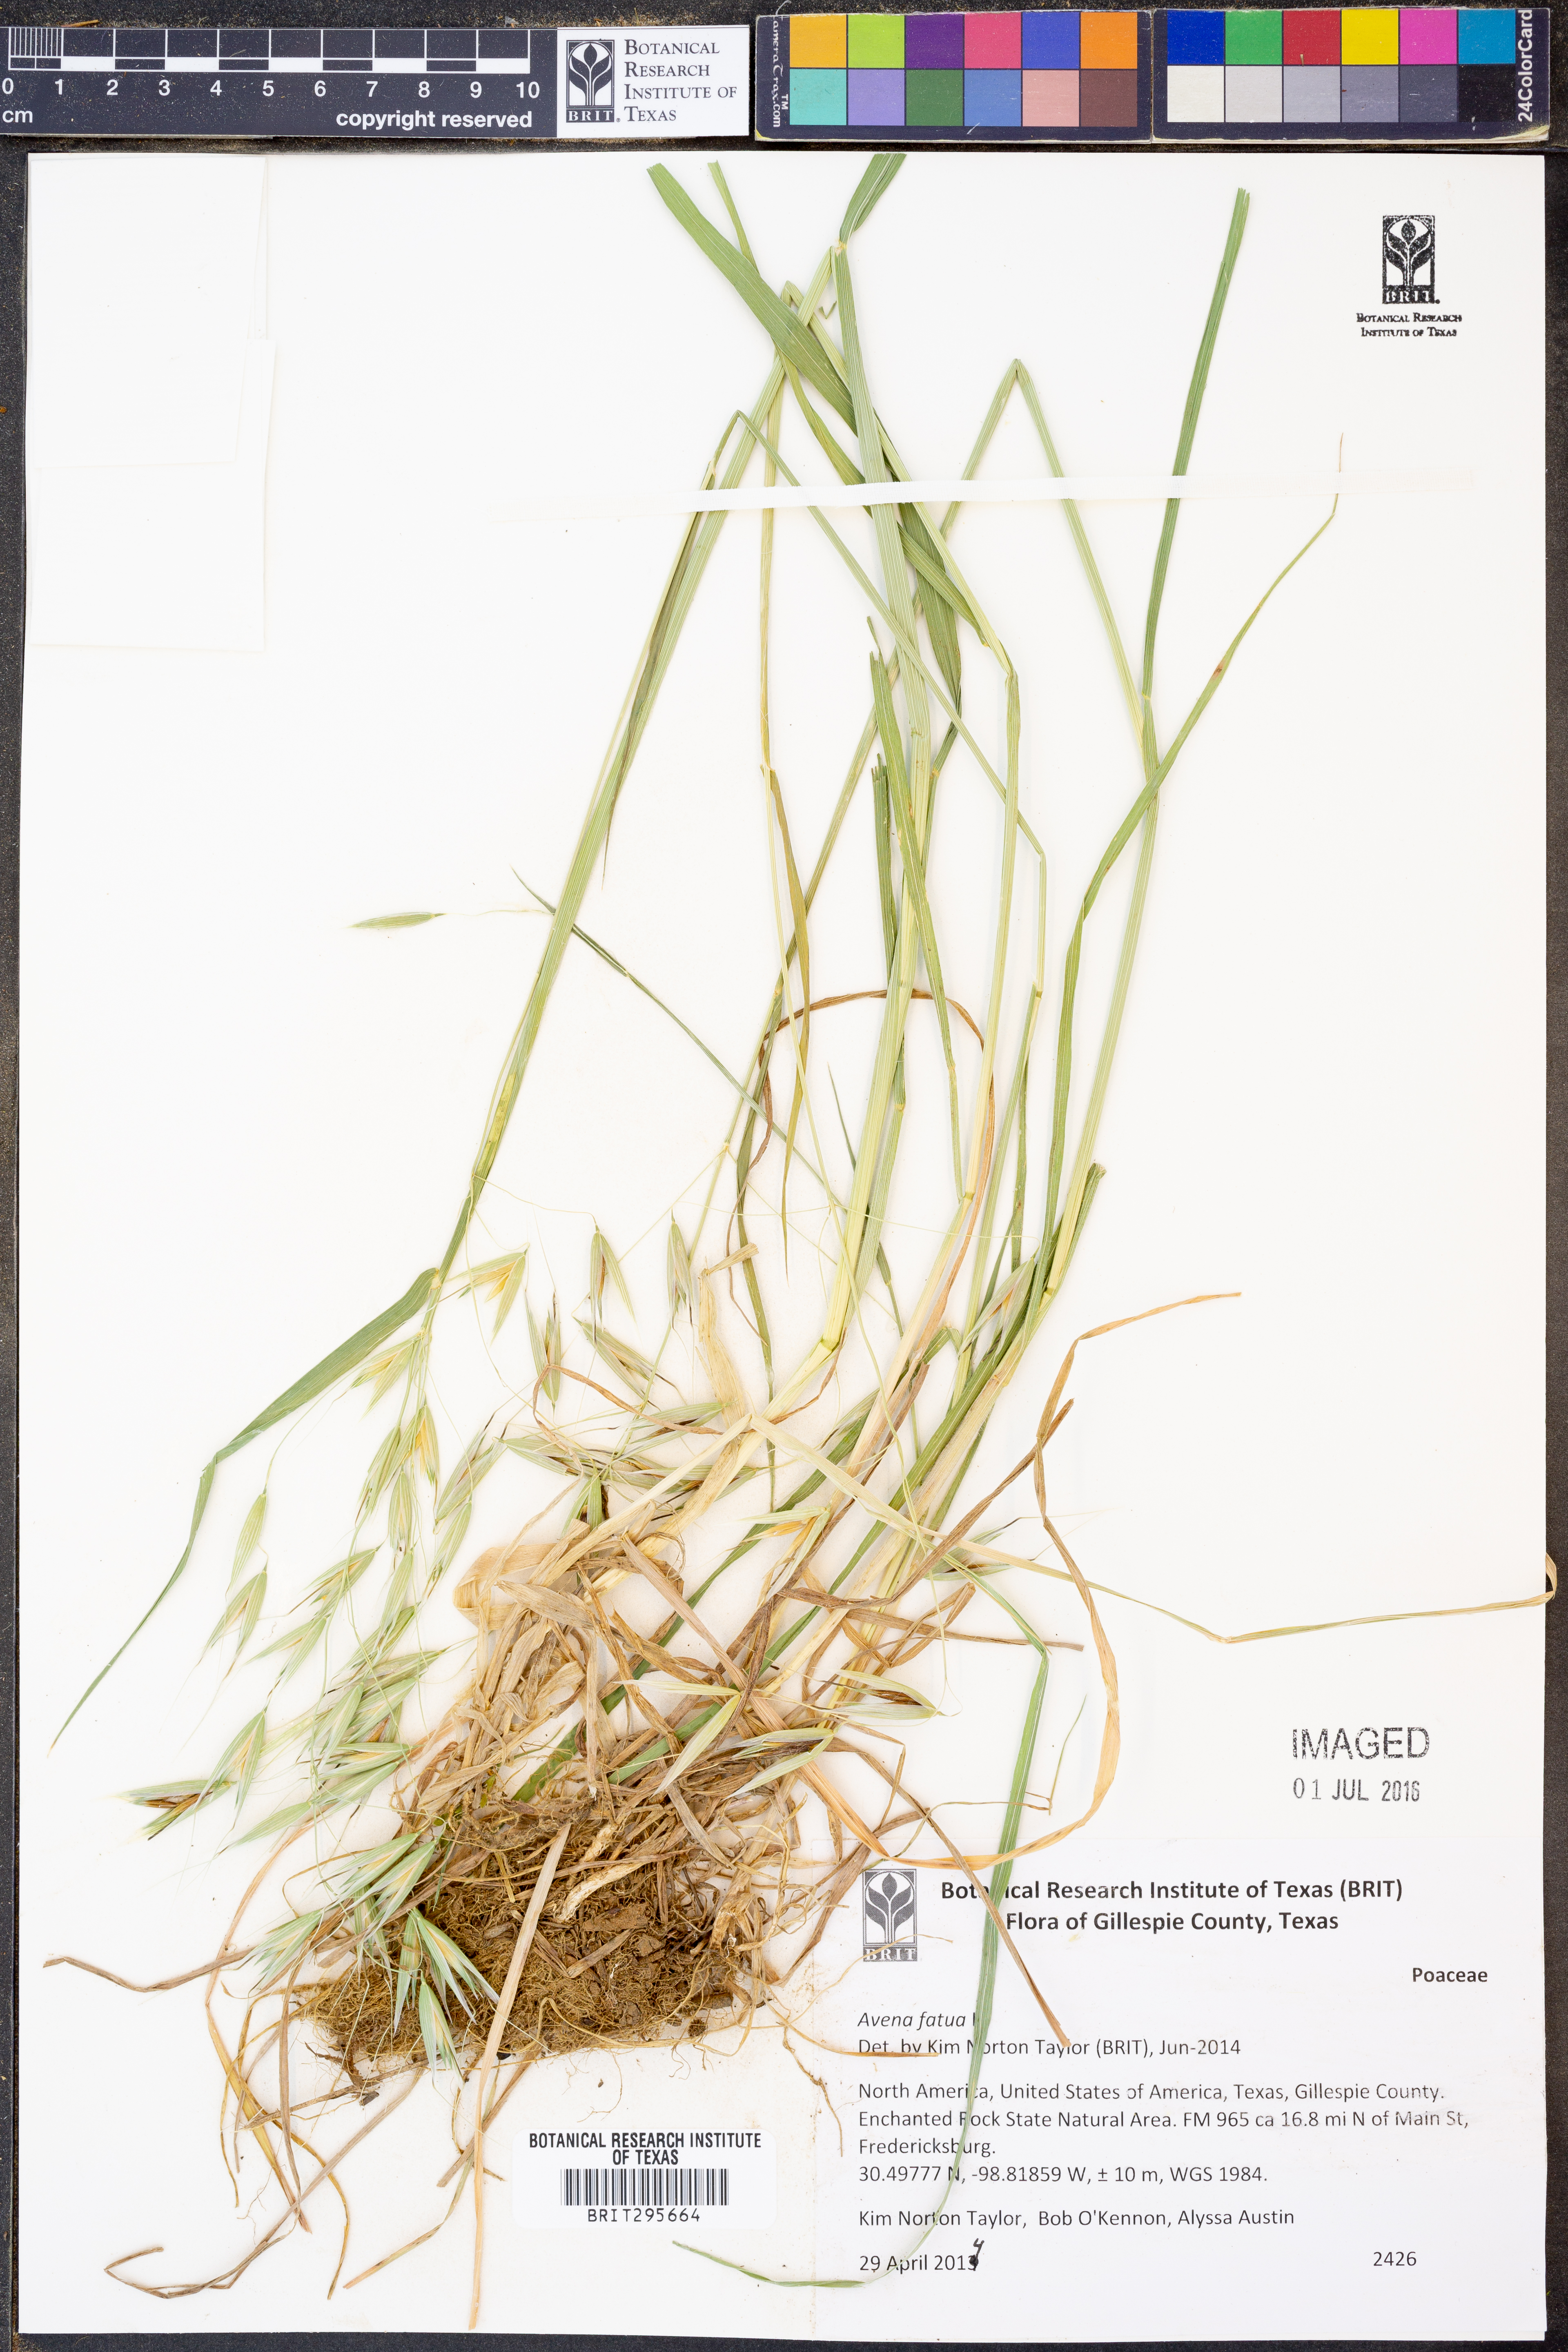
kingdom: Plantae
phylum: Tracheophyta
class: Liliopsida
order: Poales
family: Poaceae
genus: Avena
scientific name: Avena fatua
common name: Wild oat
